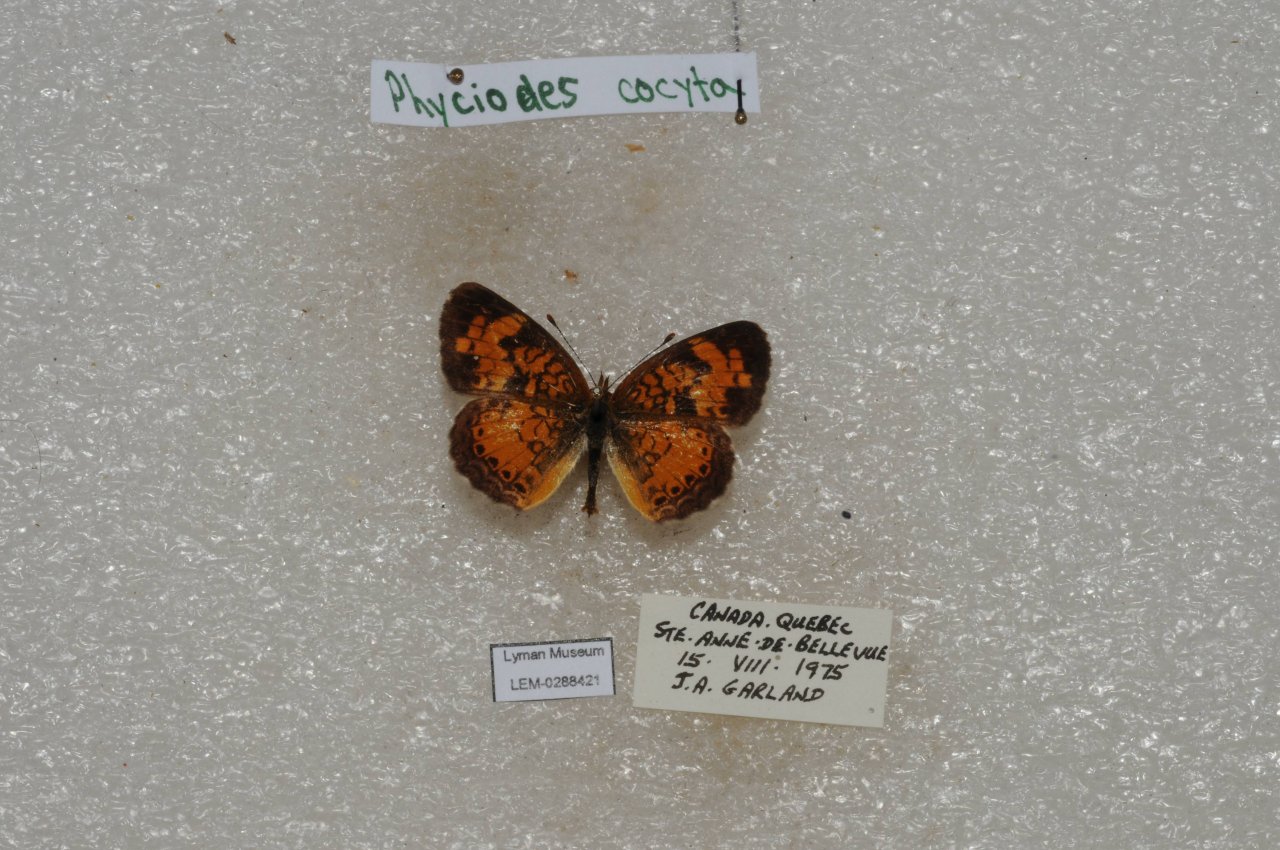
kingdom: Animalia
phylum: Arthropoda
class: Insecta
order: Lepidoptera
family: Nymphalidae
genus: Phyciodes
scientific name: Phyciodes tharos
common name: Northern Crescent
